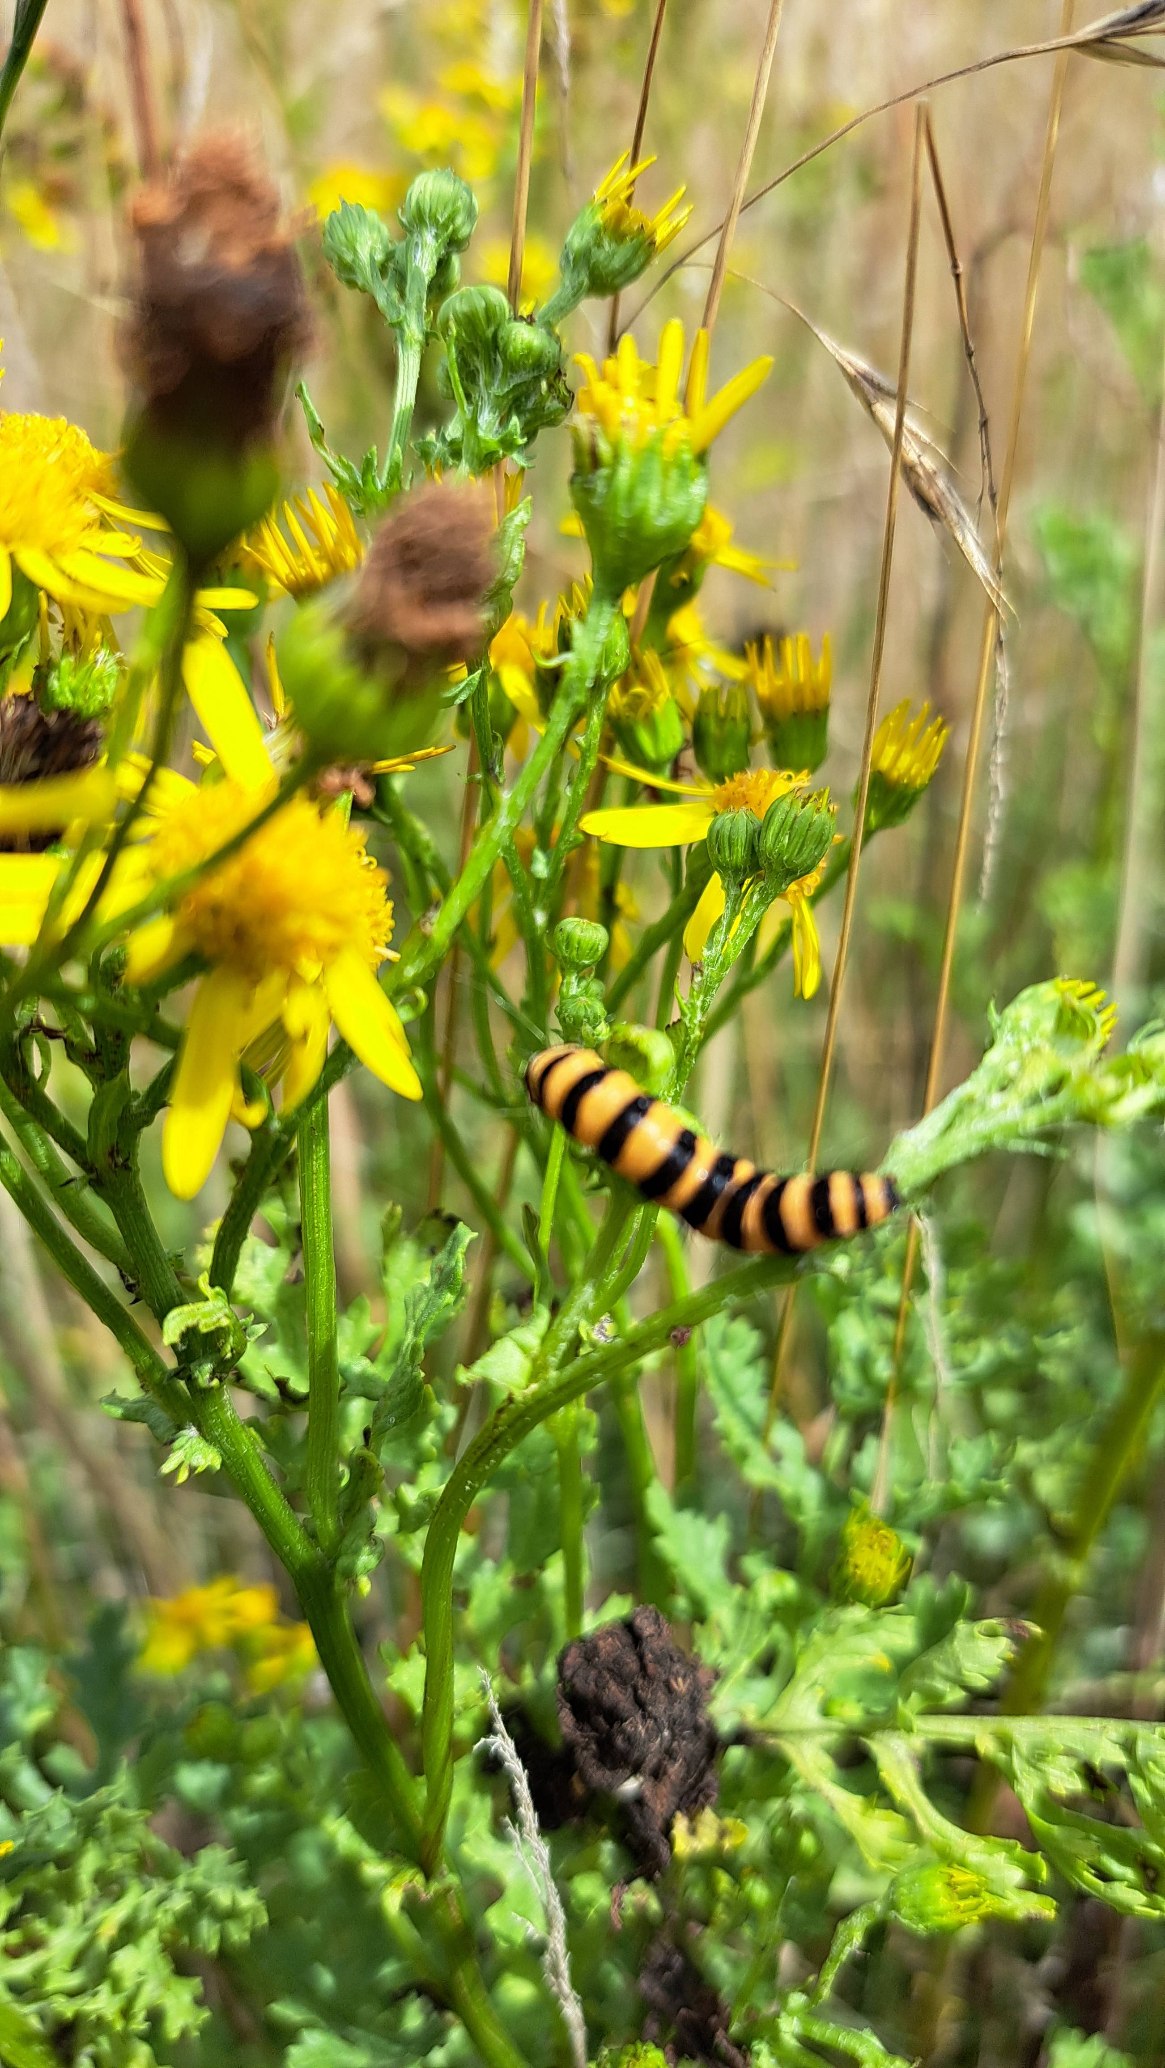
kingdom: Animalia
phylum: Arthropoda
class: Insecta
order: Lepidoptera
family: Erebidae
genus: Tyria
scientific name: Tyria jacobaeae
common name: Blodplet
